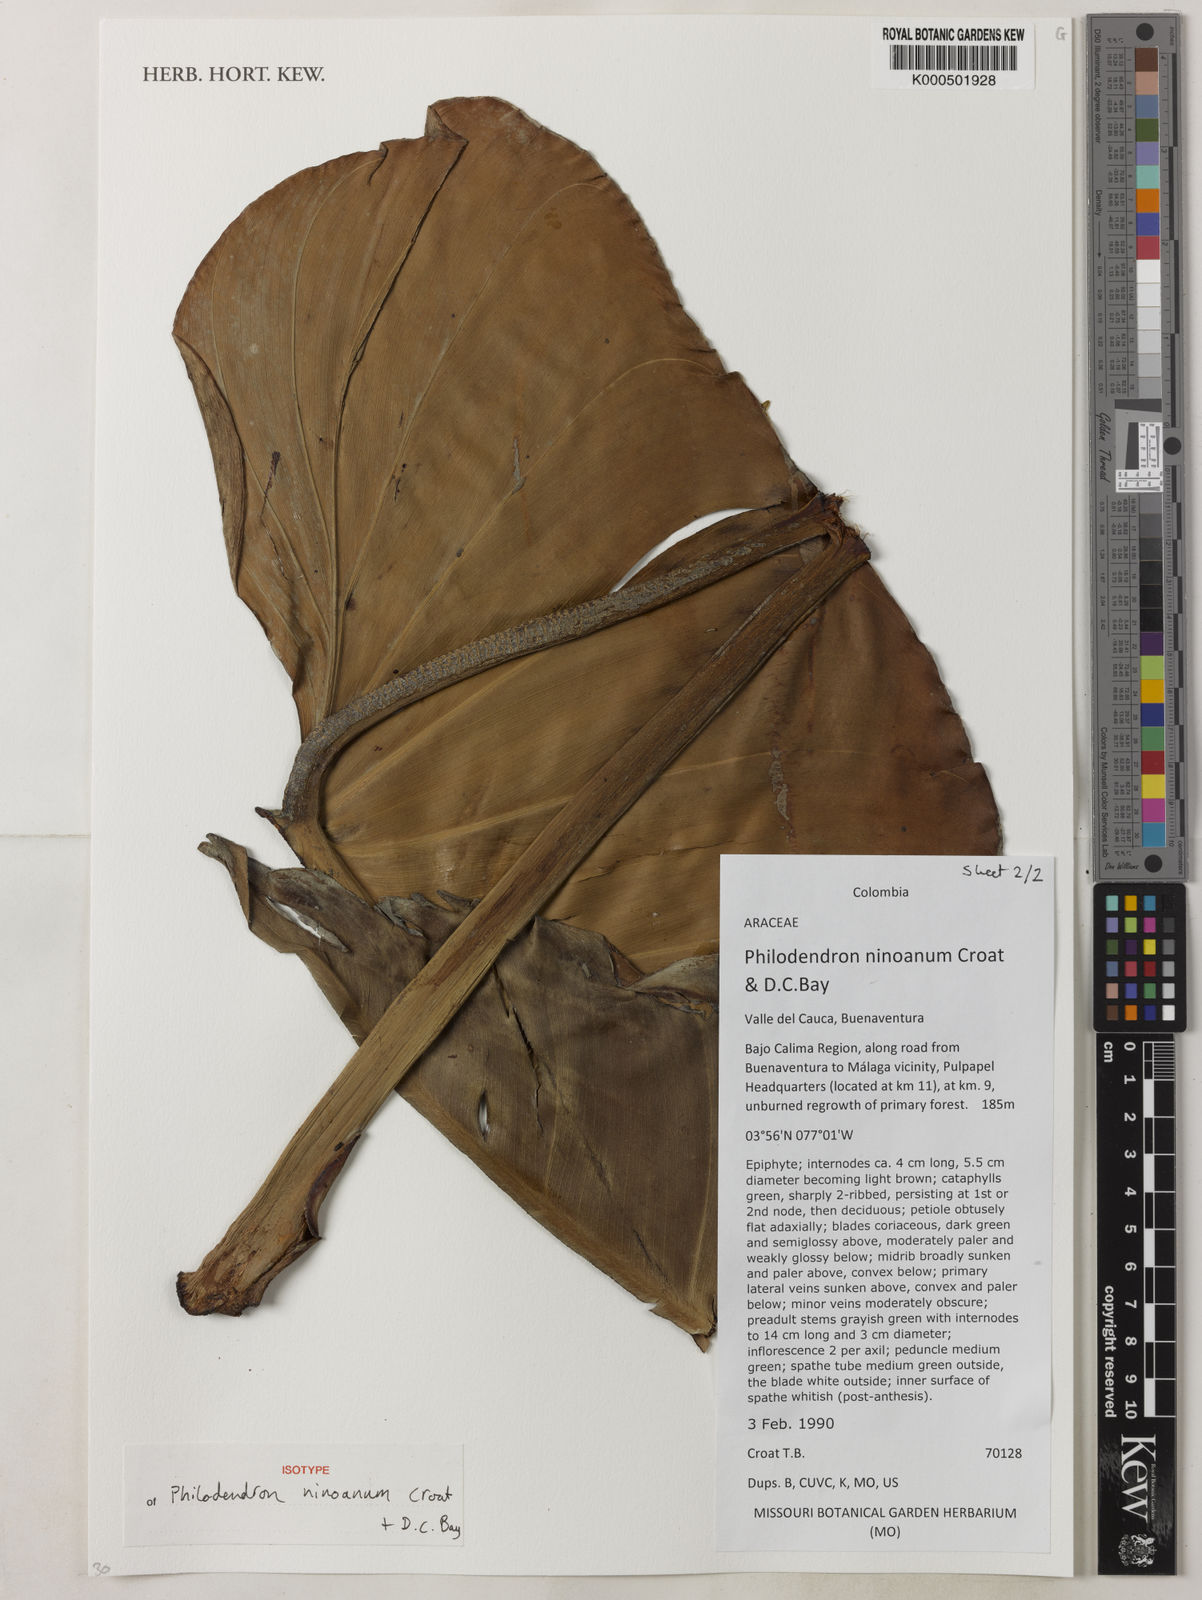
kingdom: Plantae
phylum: Tracheophyta
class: Liliopsida
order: Alismatales
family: Araceae
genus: Philodendron
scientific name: Philodendron ninoanum
